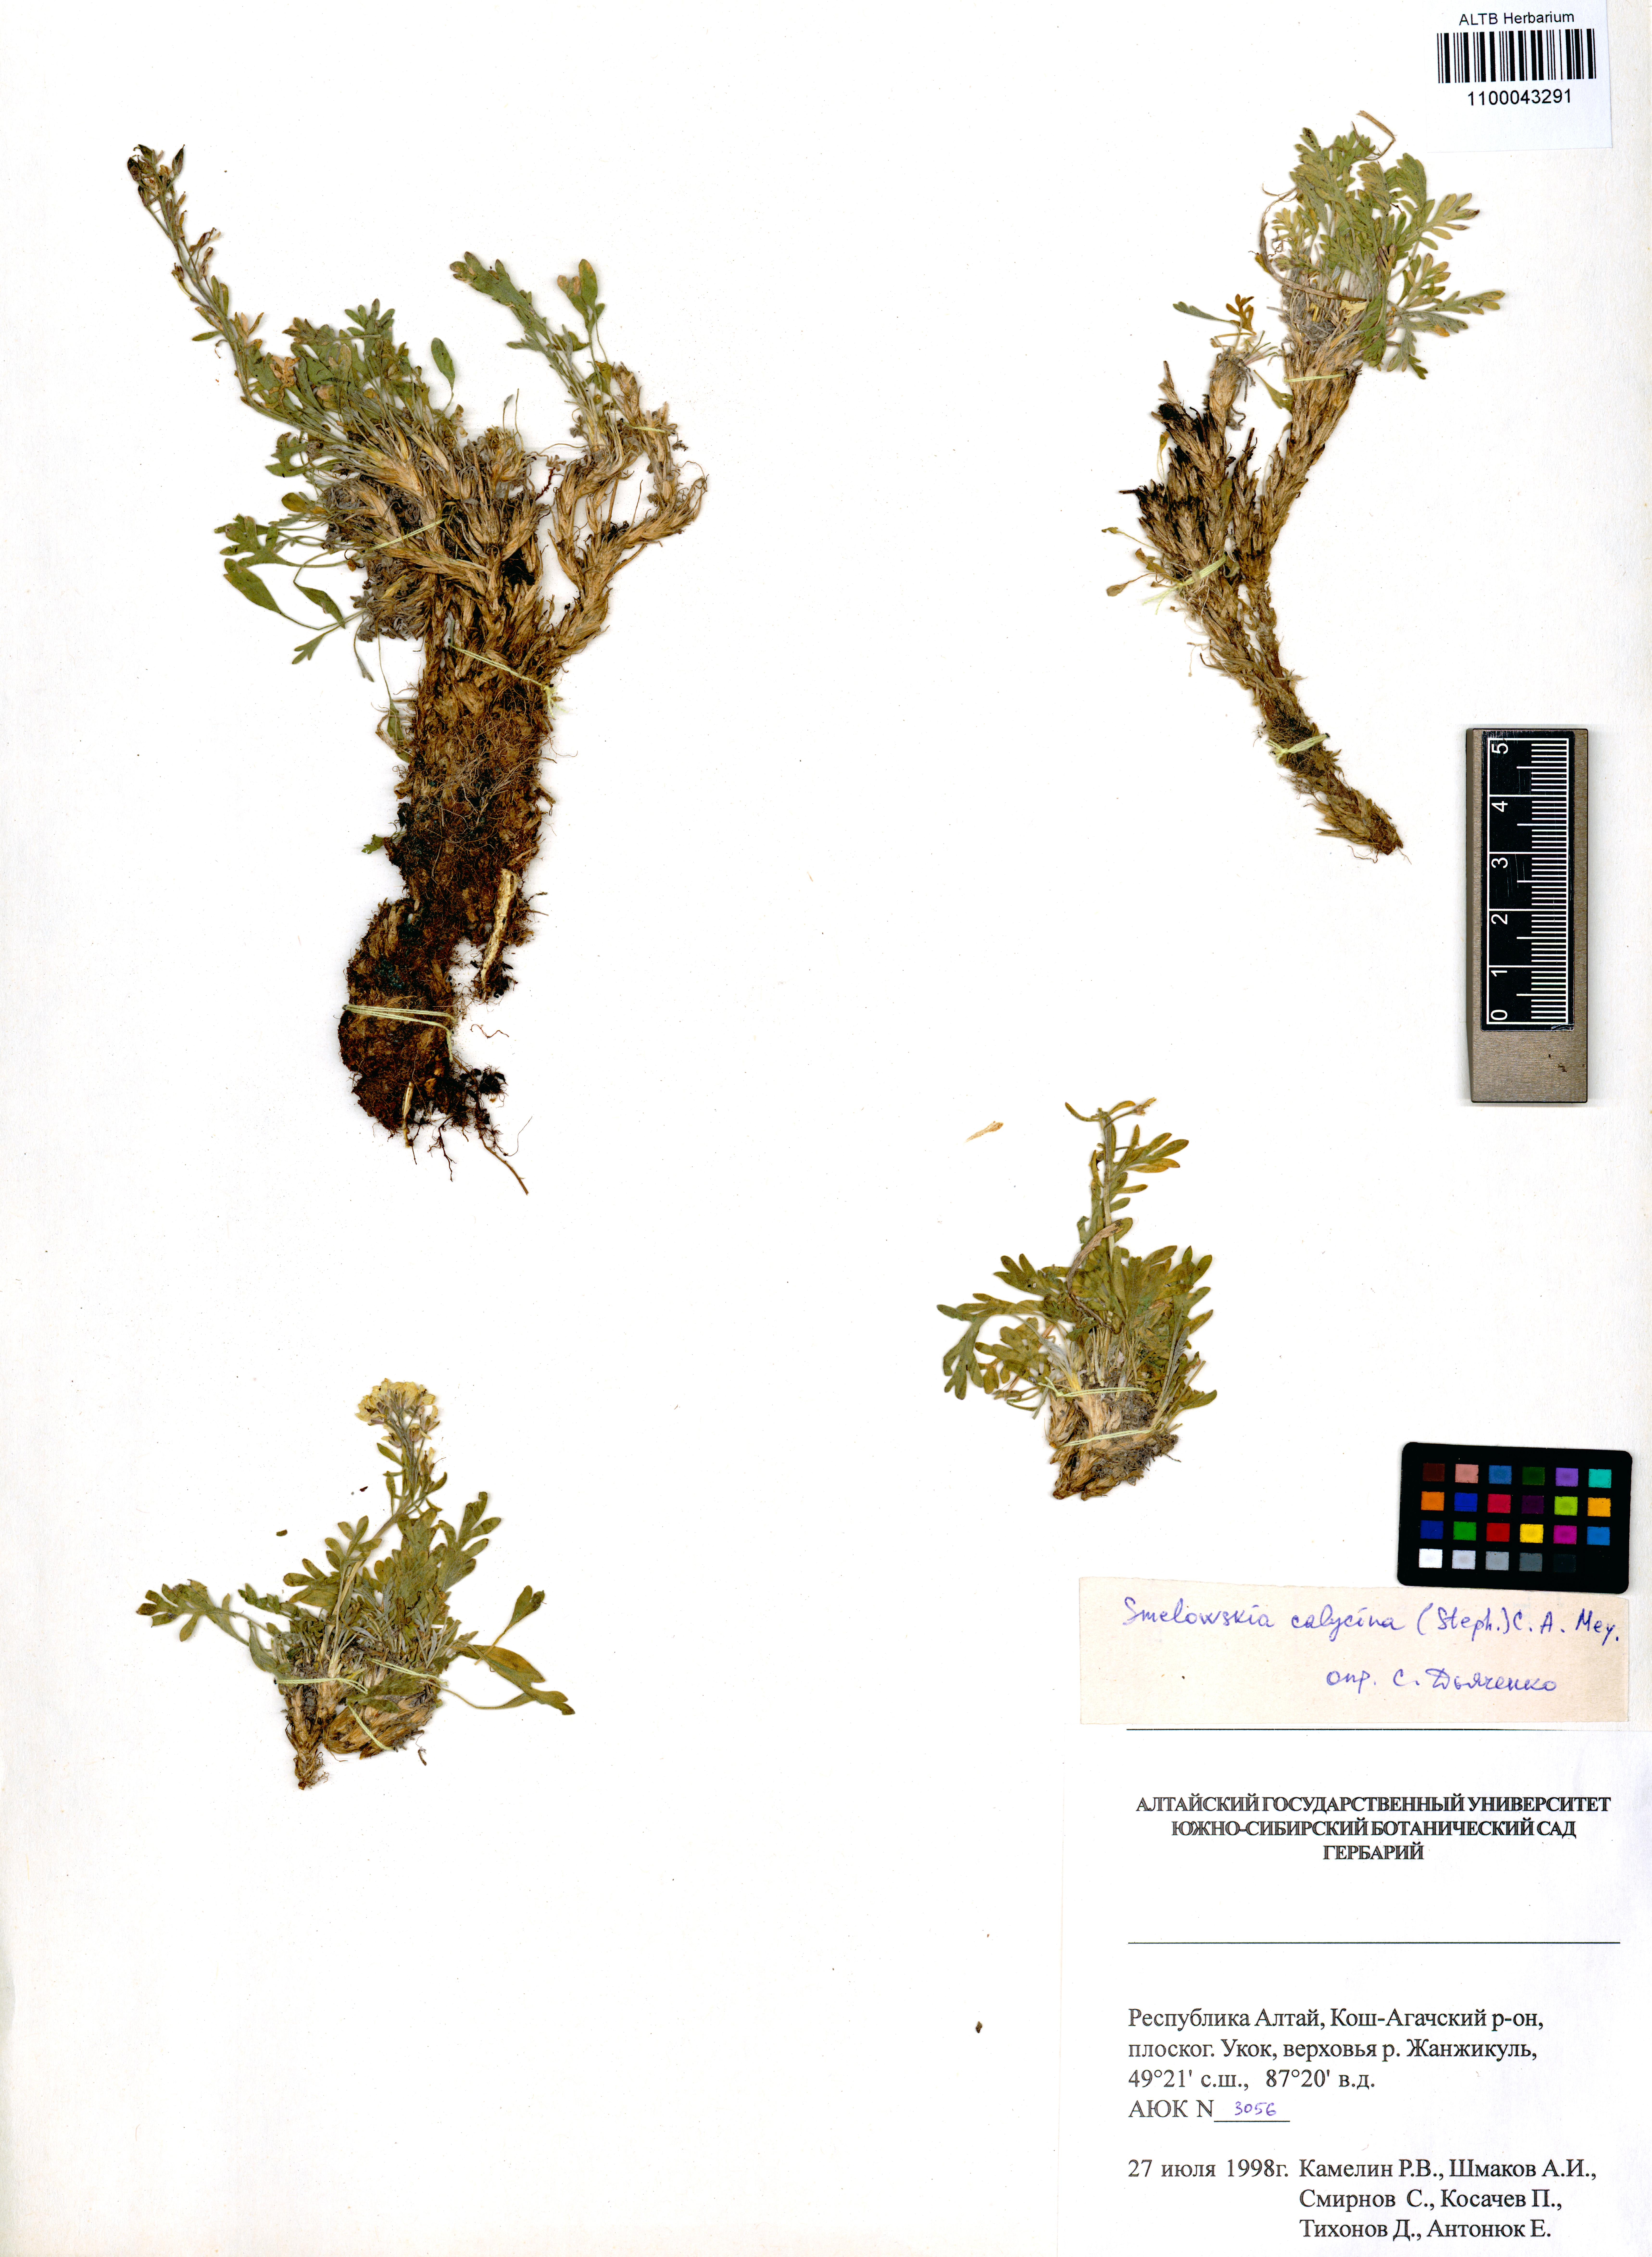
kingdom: Plantae
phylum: Tracheophyta
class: Magnoliopsida
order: Brassicales
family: Brassicaceae
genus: Smelowskia
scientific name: Smelowskia calycina
